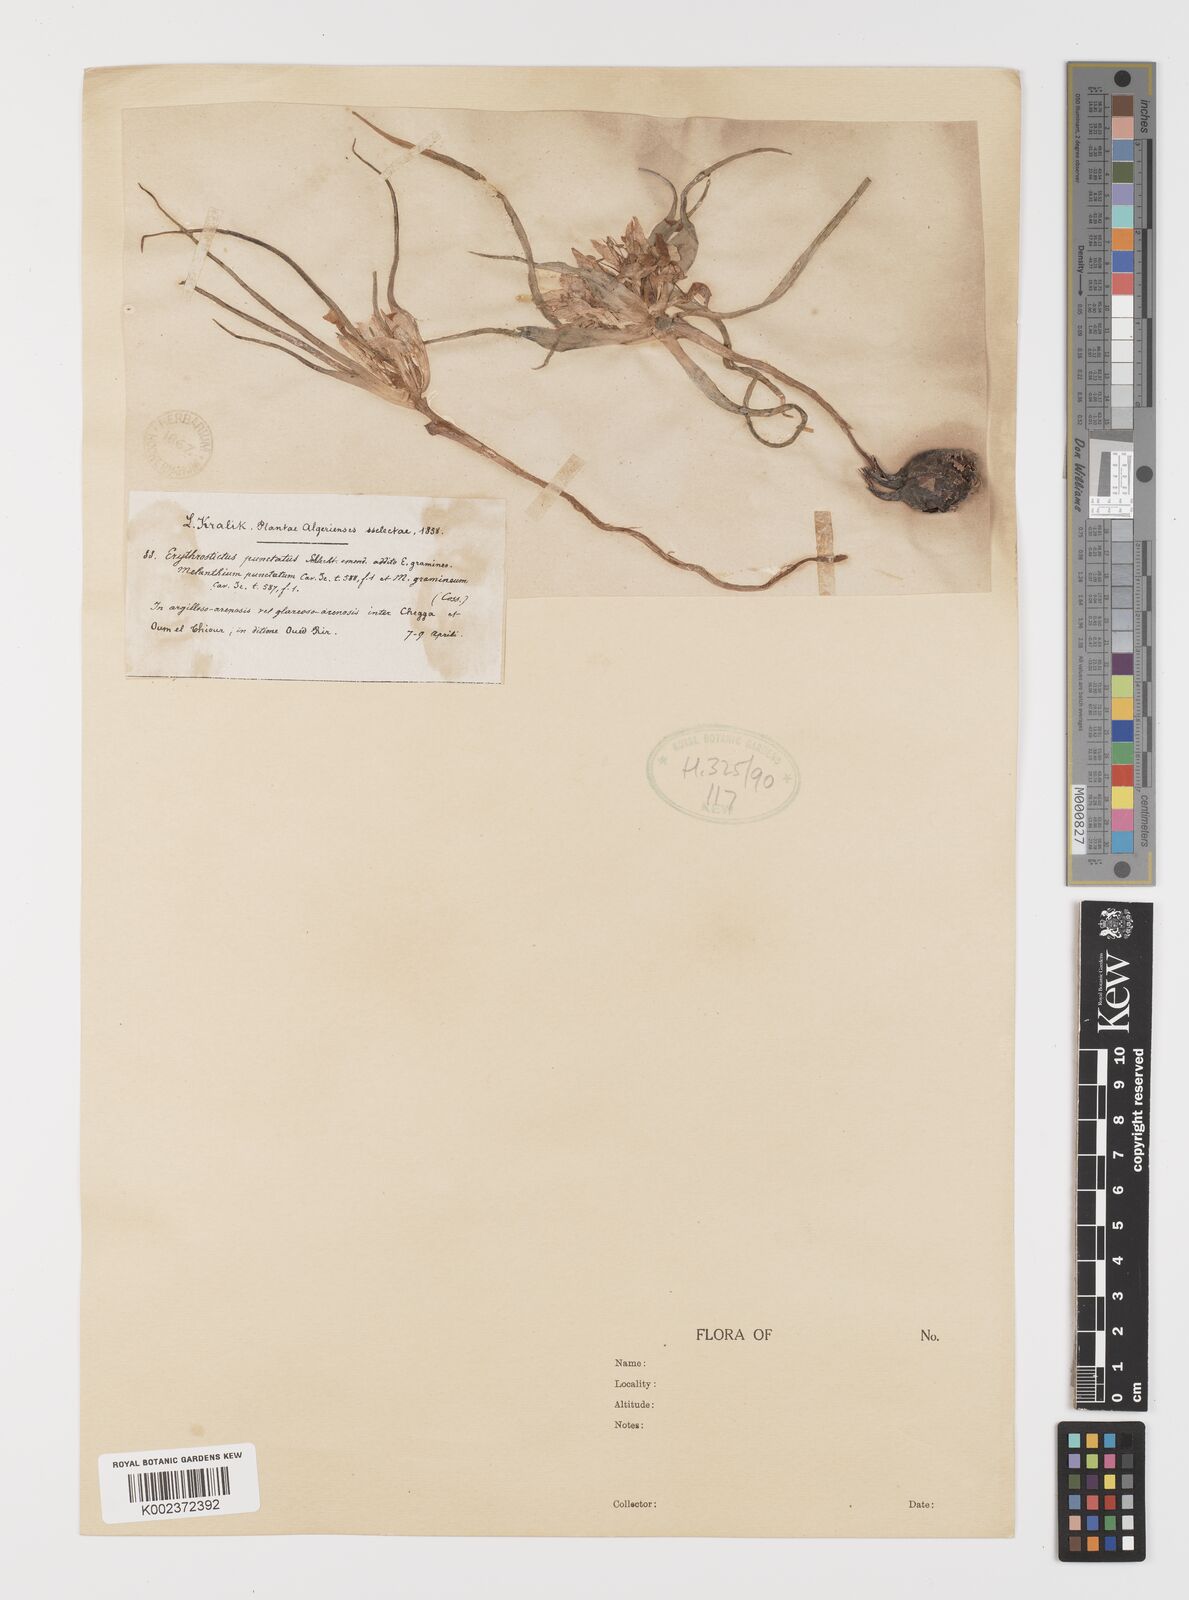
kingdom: Plantae
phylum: Tracheophyta
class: Liliopsida
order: Liliales
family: Colchicaceae
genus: Colchicum
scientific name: Colchicum gramineum
